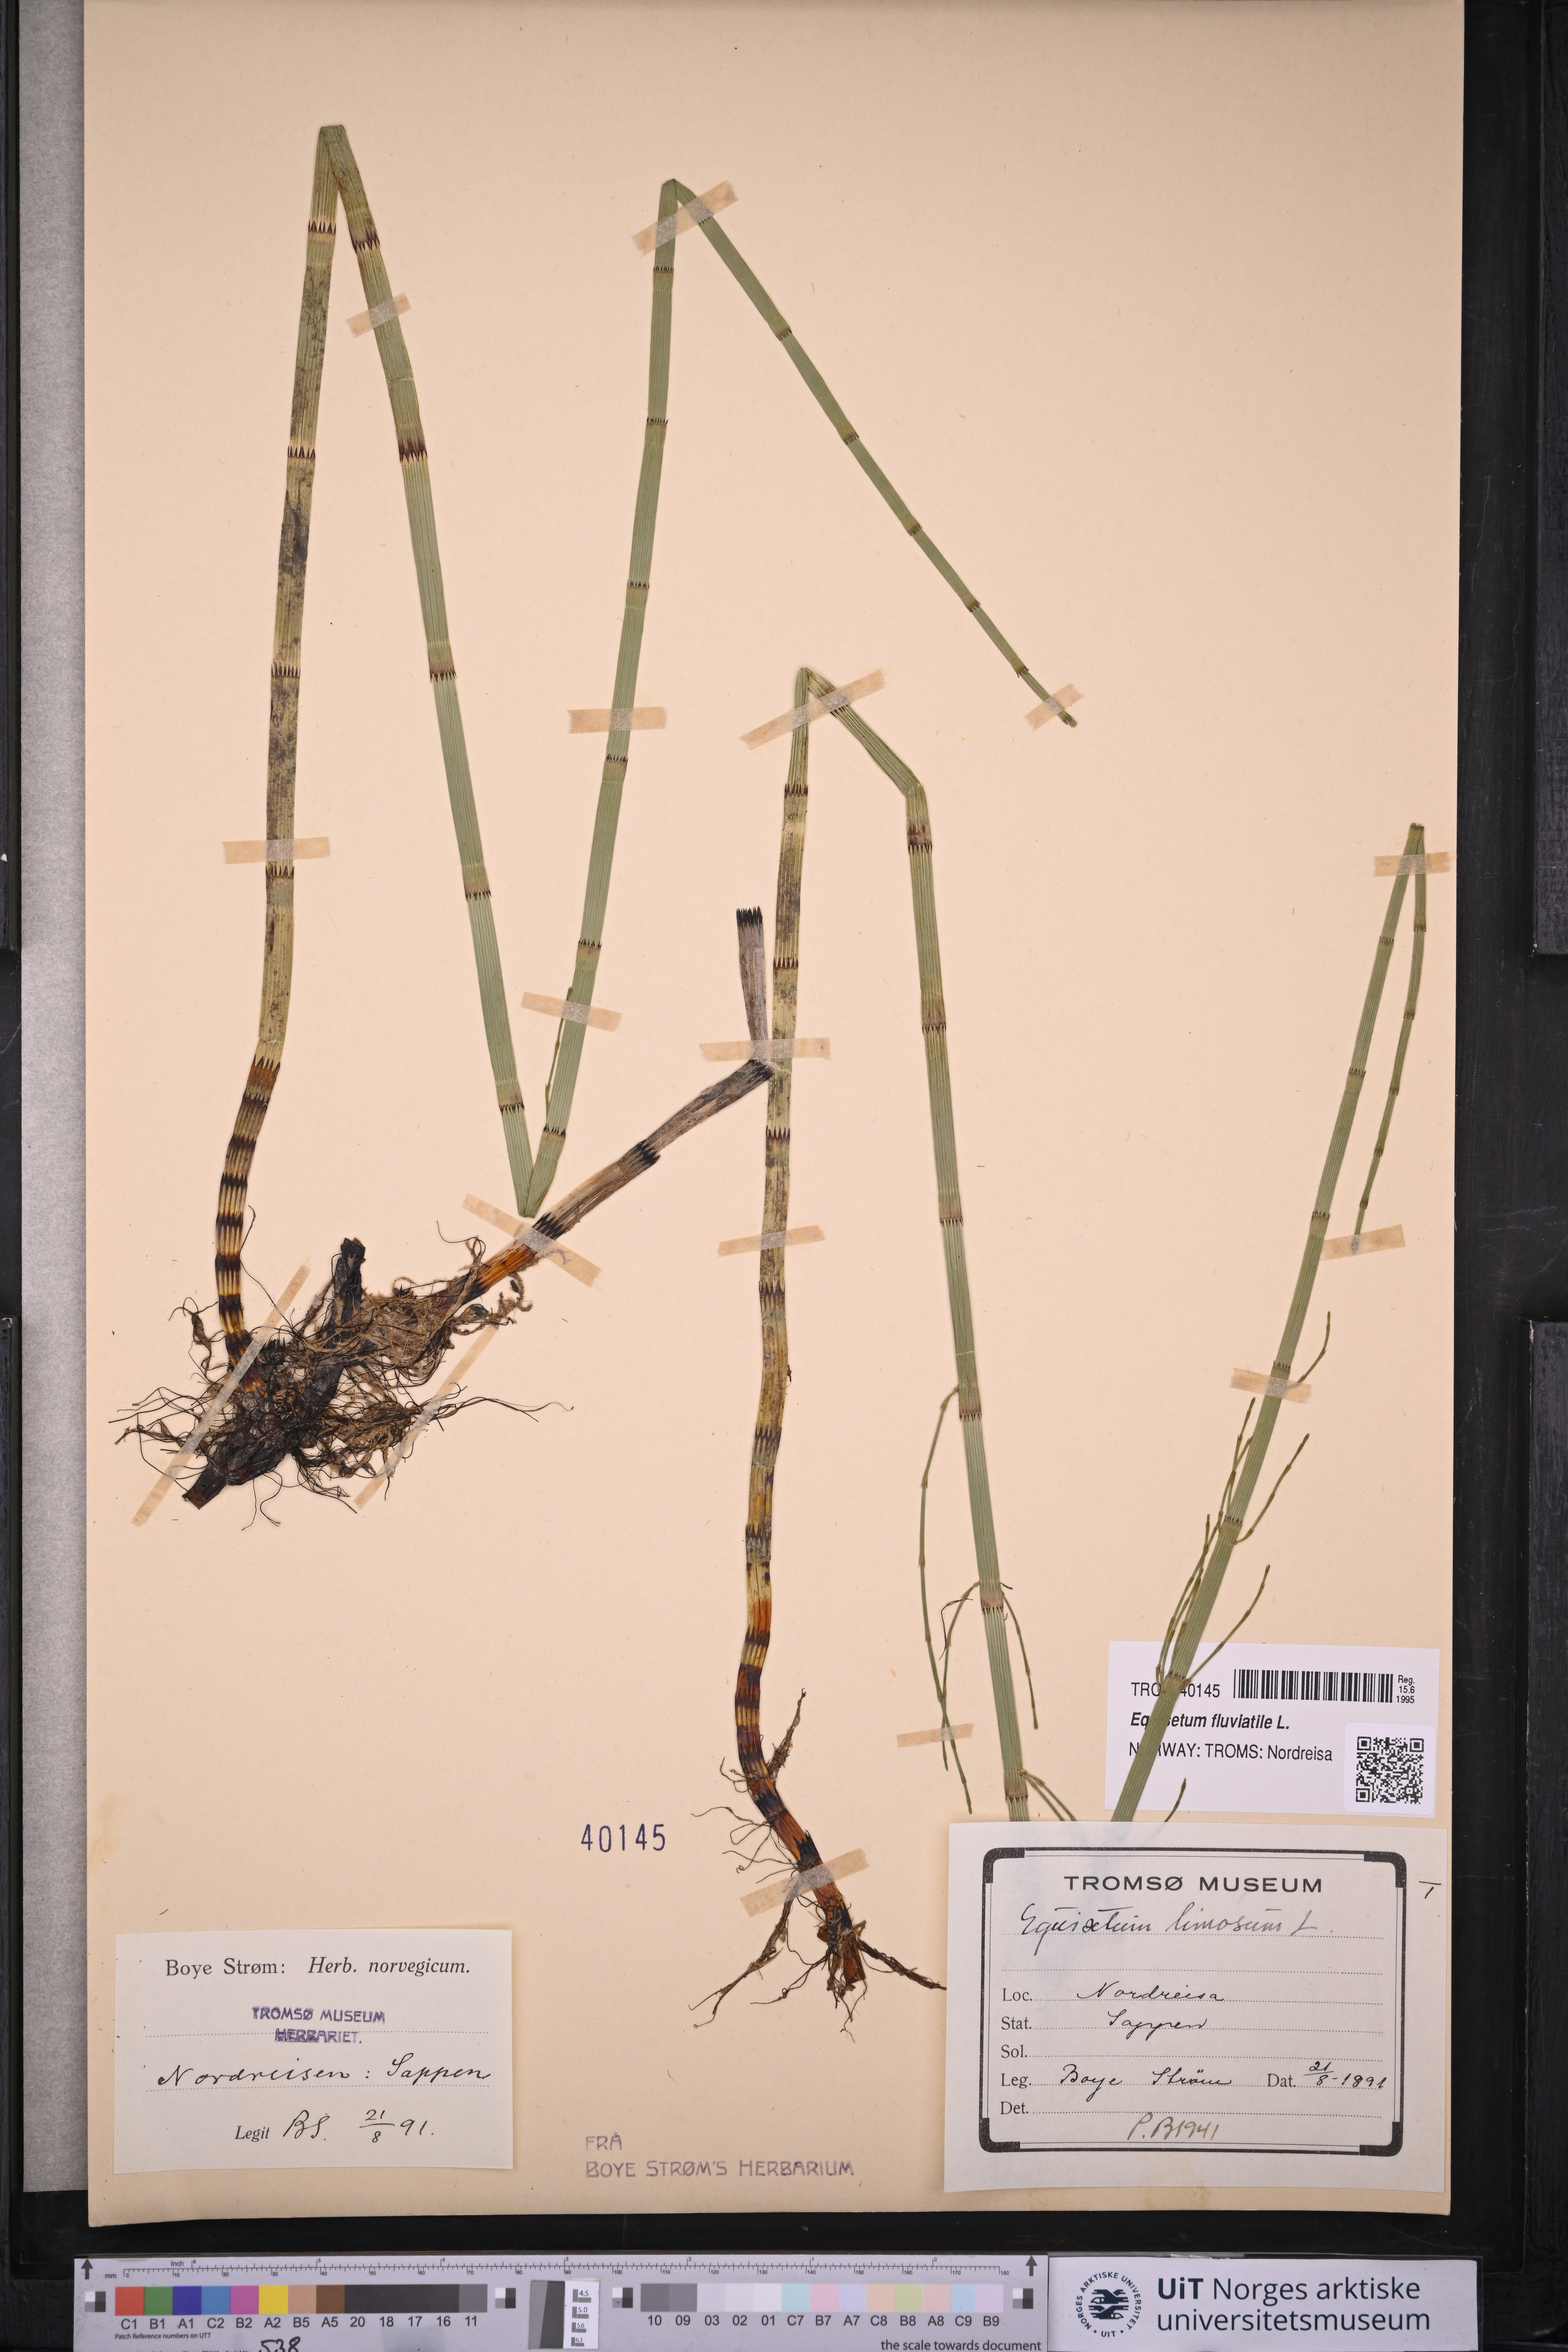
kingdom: Plantae
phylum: Tracheophyta
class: Polypodiopsida
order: Equisetales
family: Equisetaceae
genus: Equisetum
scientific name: Equisetum fluviatile
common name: Water horsetail
